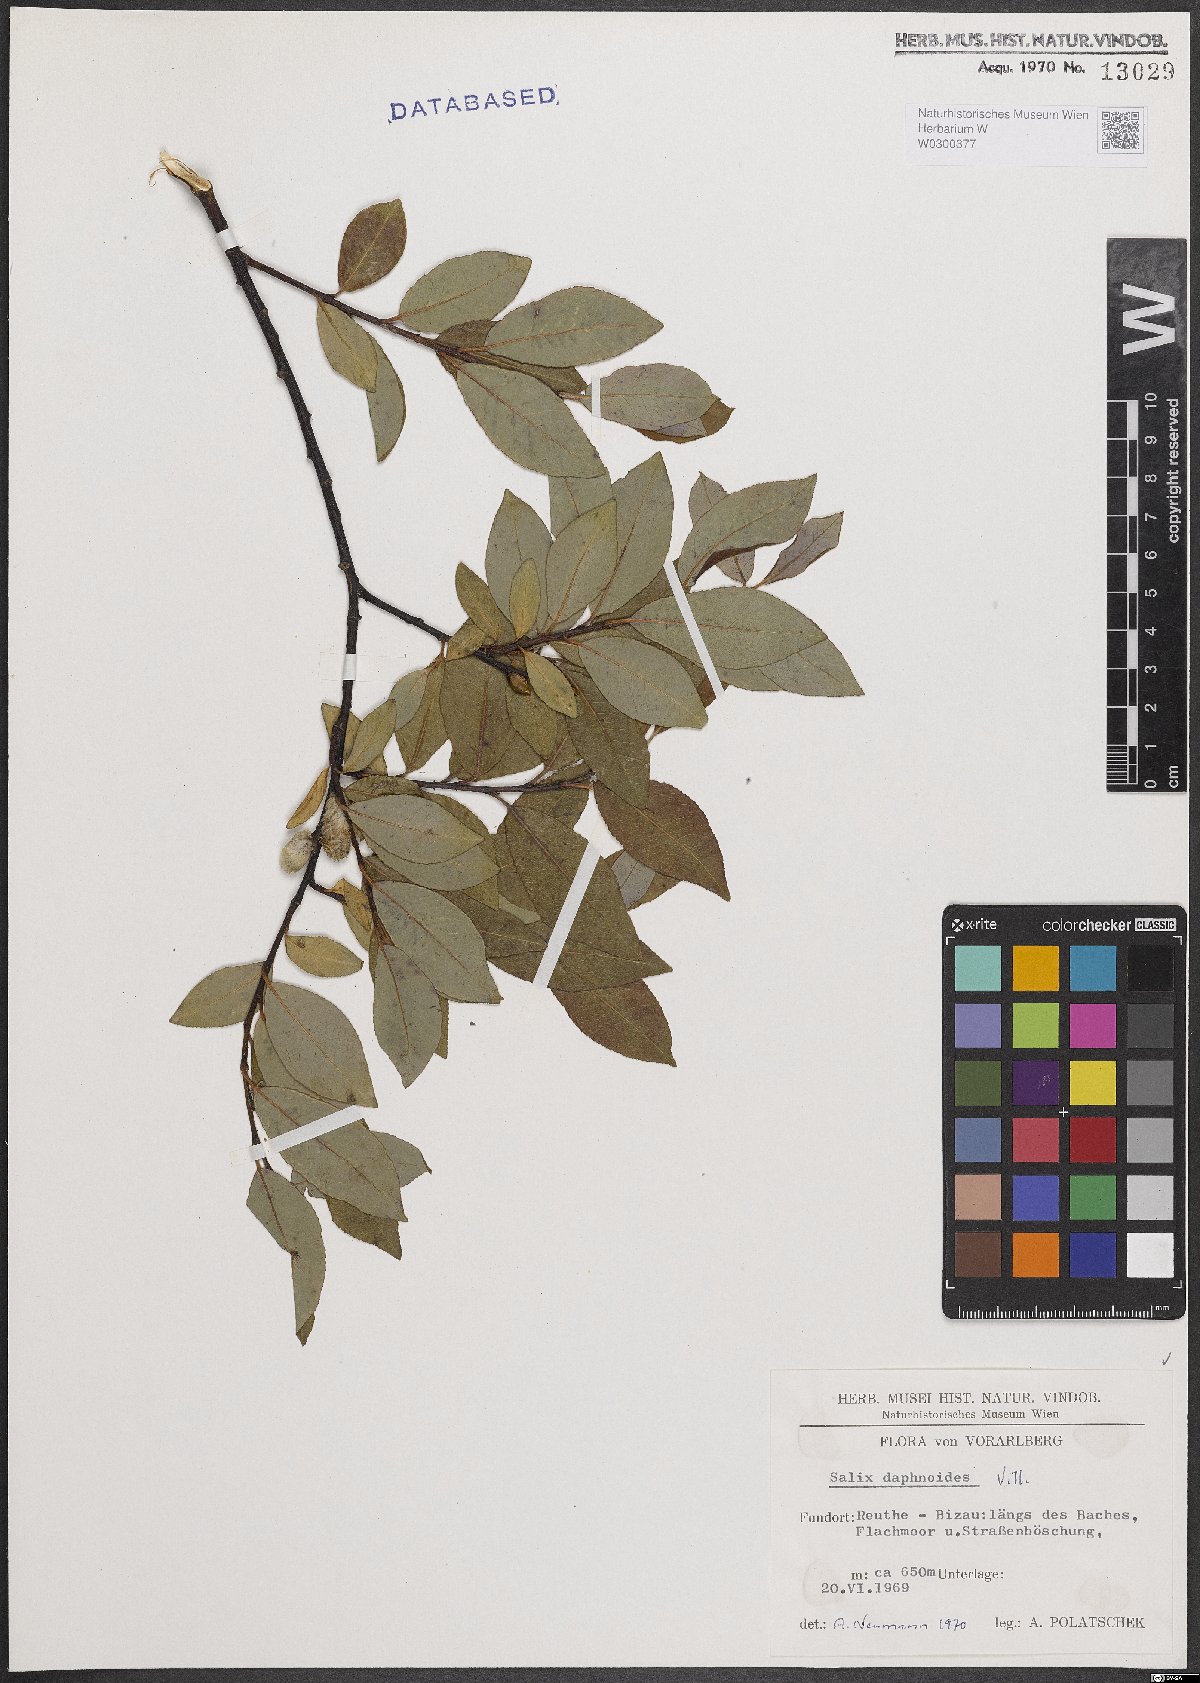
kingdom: Plantae
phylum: Tracheophyta
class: Magnoliopsida
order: Malpighiales
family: Salicaceae
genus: Salix
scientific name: Salix daphnoides
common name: European violet-willow
